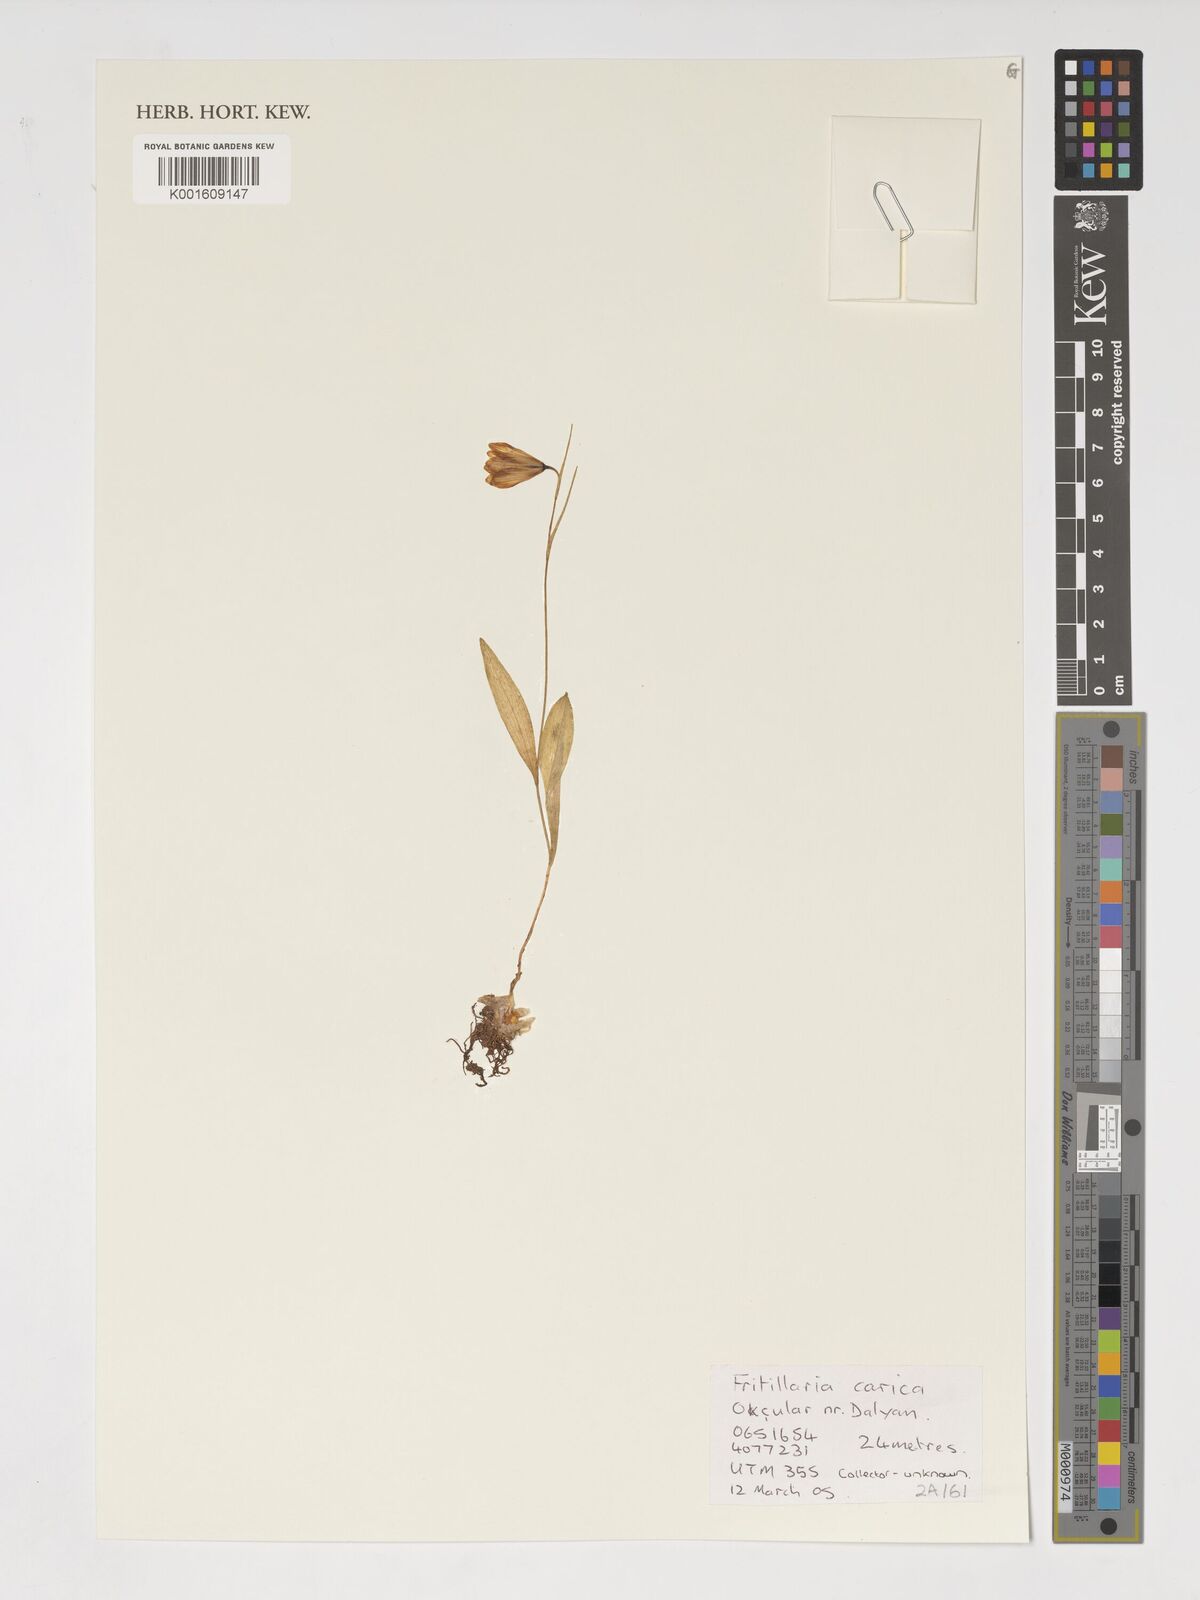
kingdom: Plantae
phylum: Tracheophyta
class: Liliopsida
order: Liliales
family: Liliaceae
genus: Fritillaria
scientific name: Fritillaria carica
